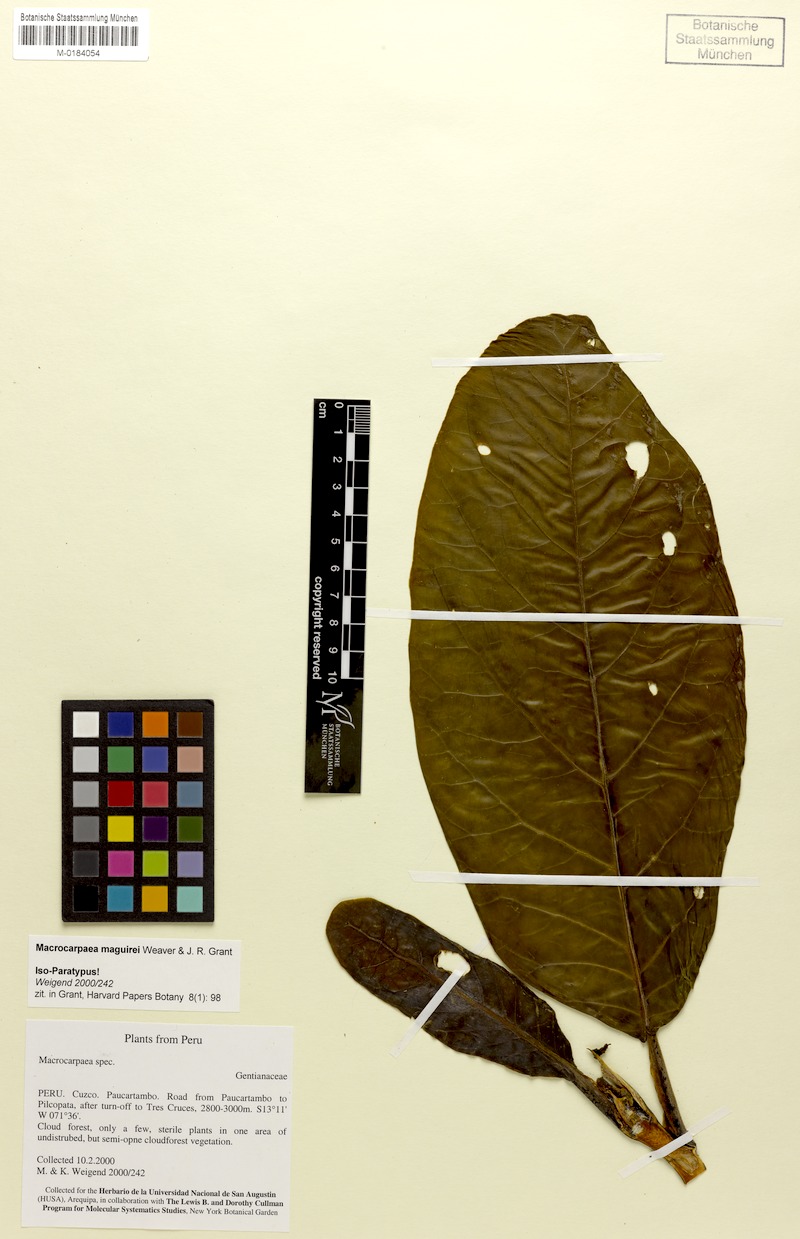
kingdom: Plantae
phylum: Tracheophyta
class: Magnoliopsida
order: Gentianales
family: Gentianaceae
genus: Macrocarpaea
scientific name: Macrocarpaea maguirei
